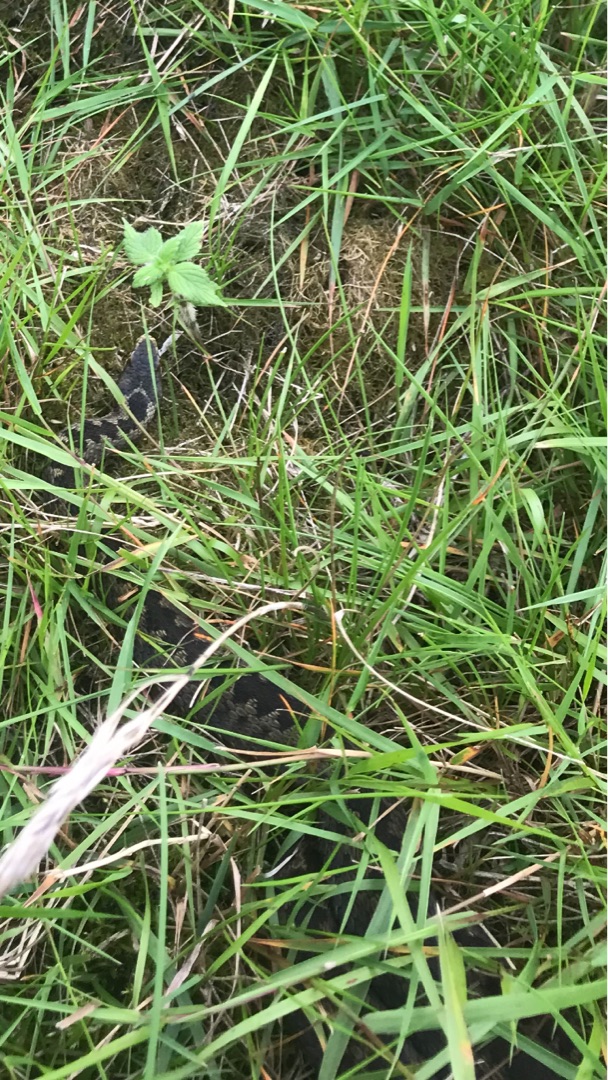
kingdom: Animalia
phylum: Chordata
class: Squamata
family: Viperidae
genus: Vipera
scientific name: Vipera berus
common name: Hugorm
